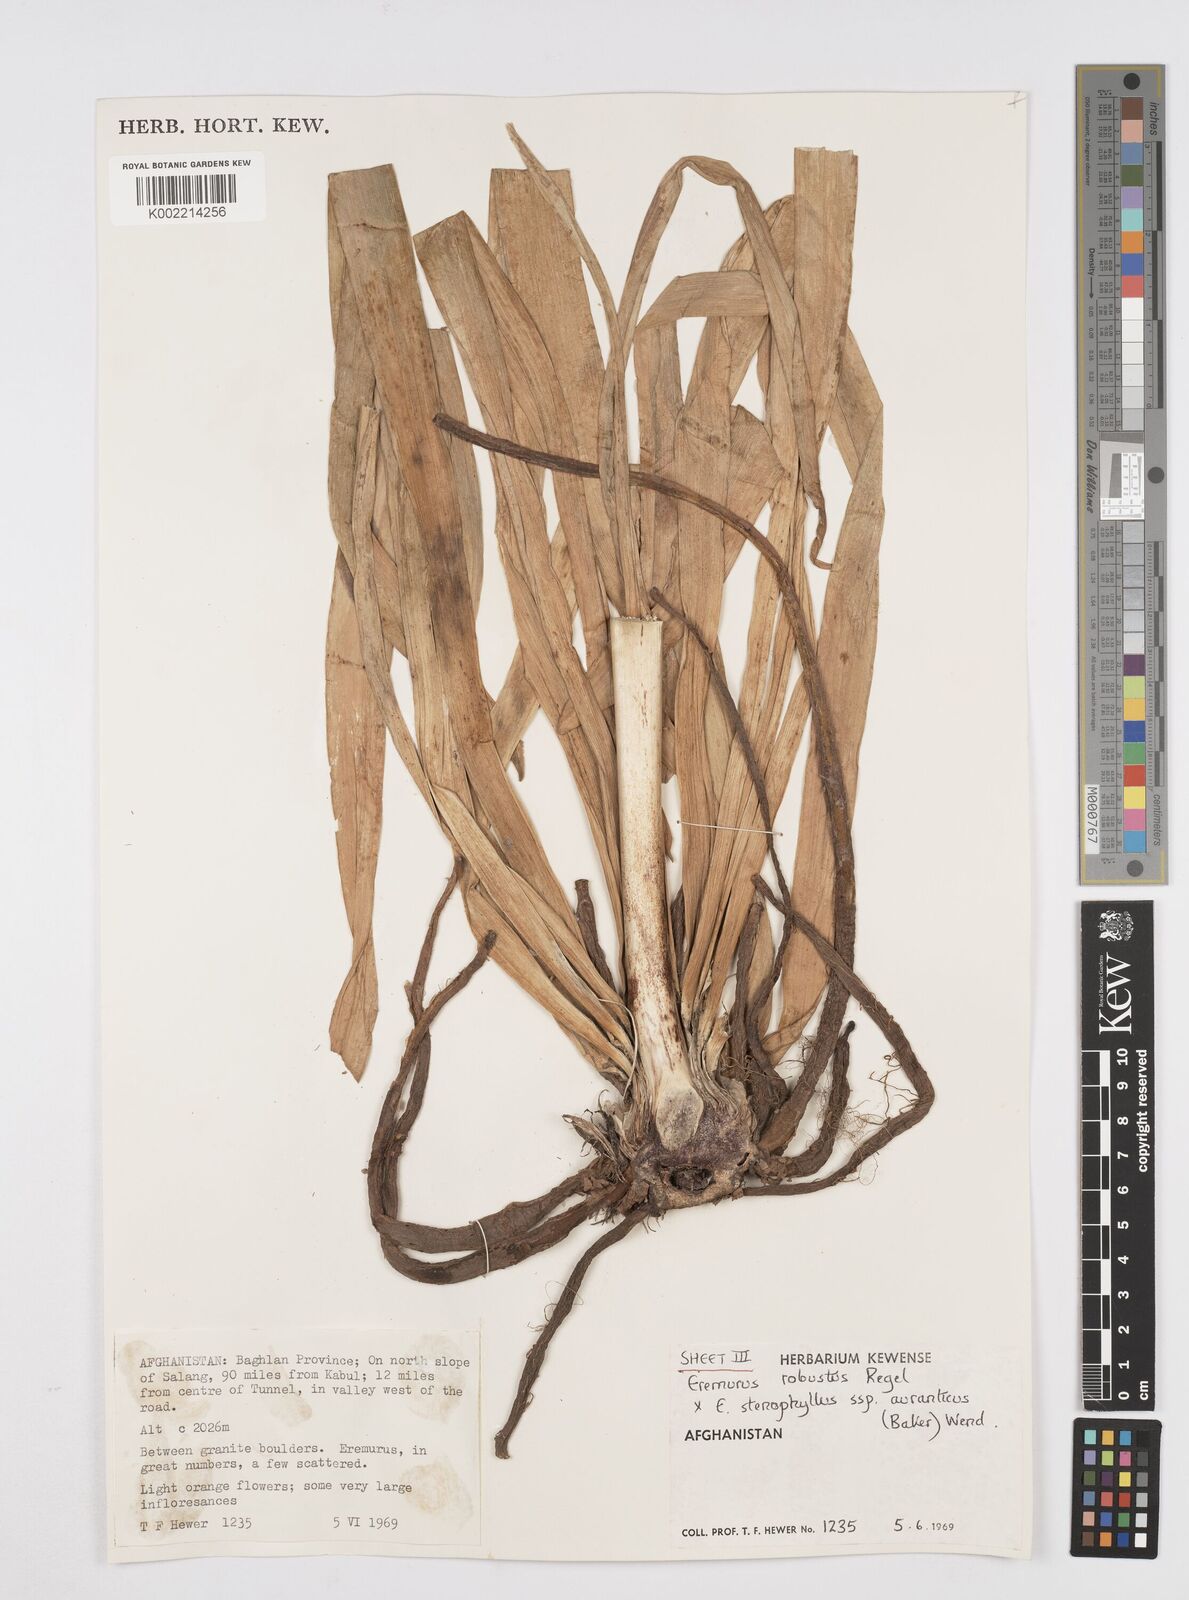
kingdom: Plantae
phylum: Tracheophyta
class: Liliopsida
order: Asparagales
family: Asphodelaceae
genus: Eremurus
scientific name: Eremurus stenophyllus
